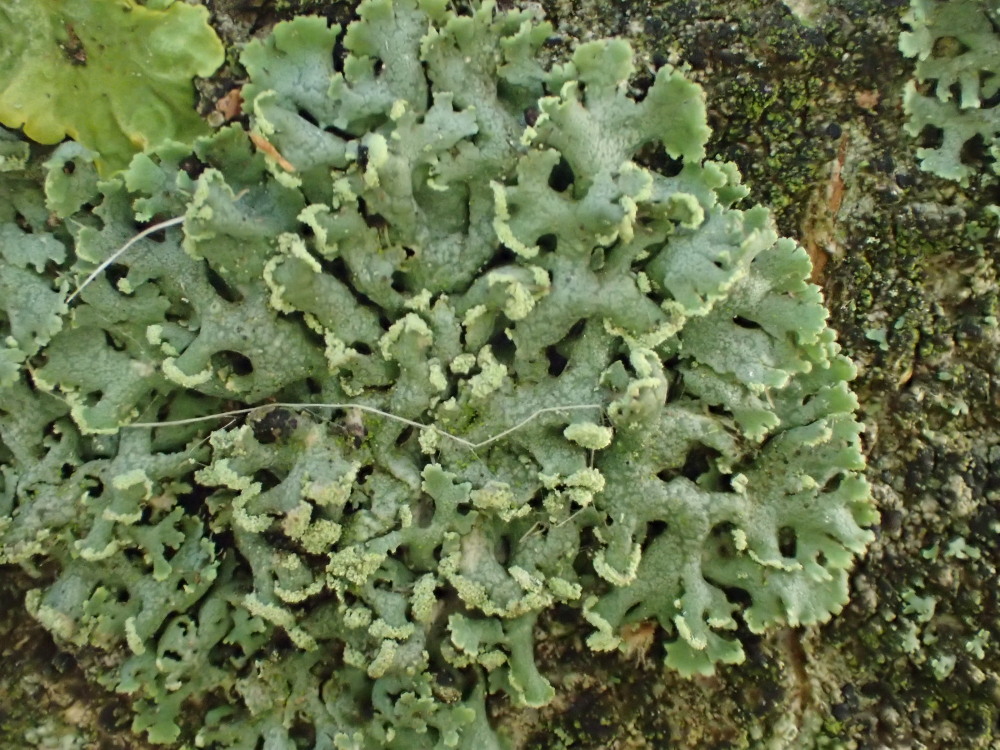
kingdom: Fungi
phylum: Ascomycota
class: Lecanoromycetes
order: Caliciales
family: Physciaceae
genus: Physcia
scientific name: Physcia tenella
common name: spæd rosetlav
